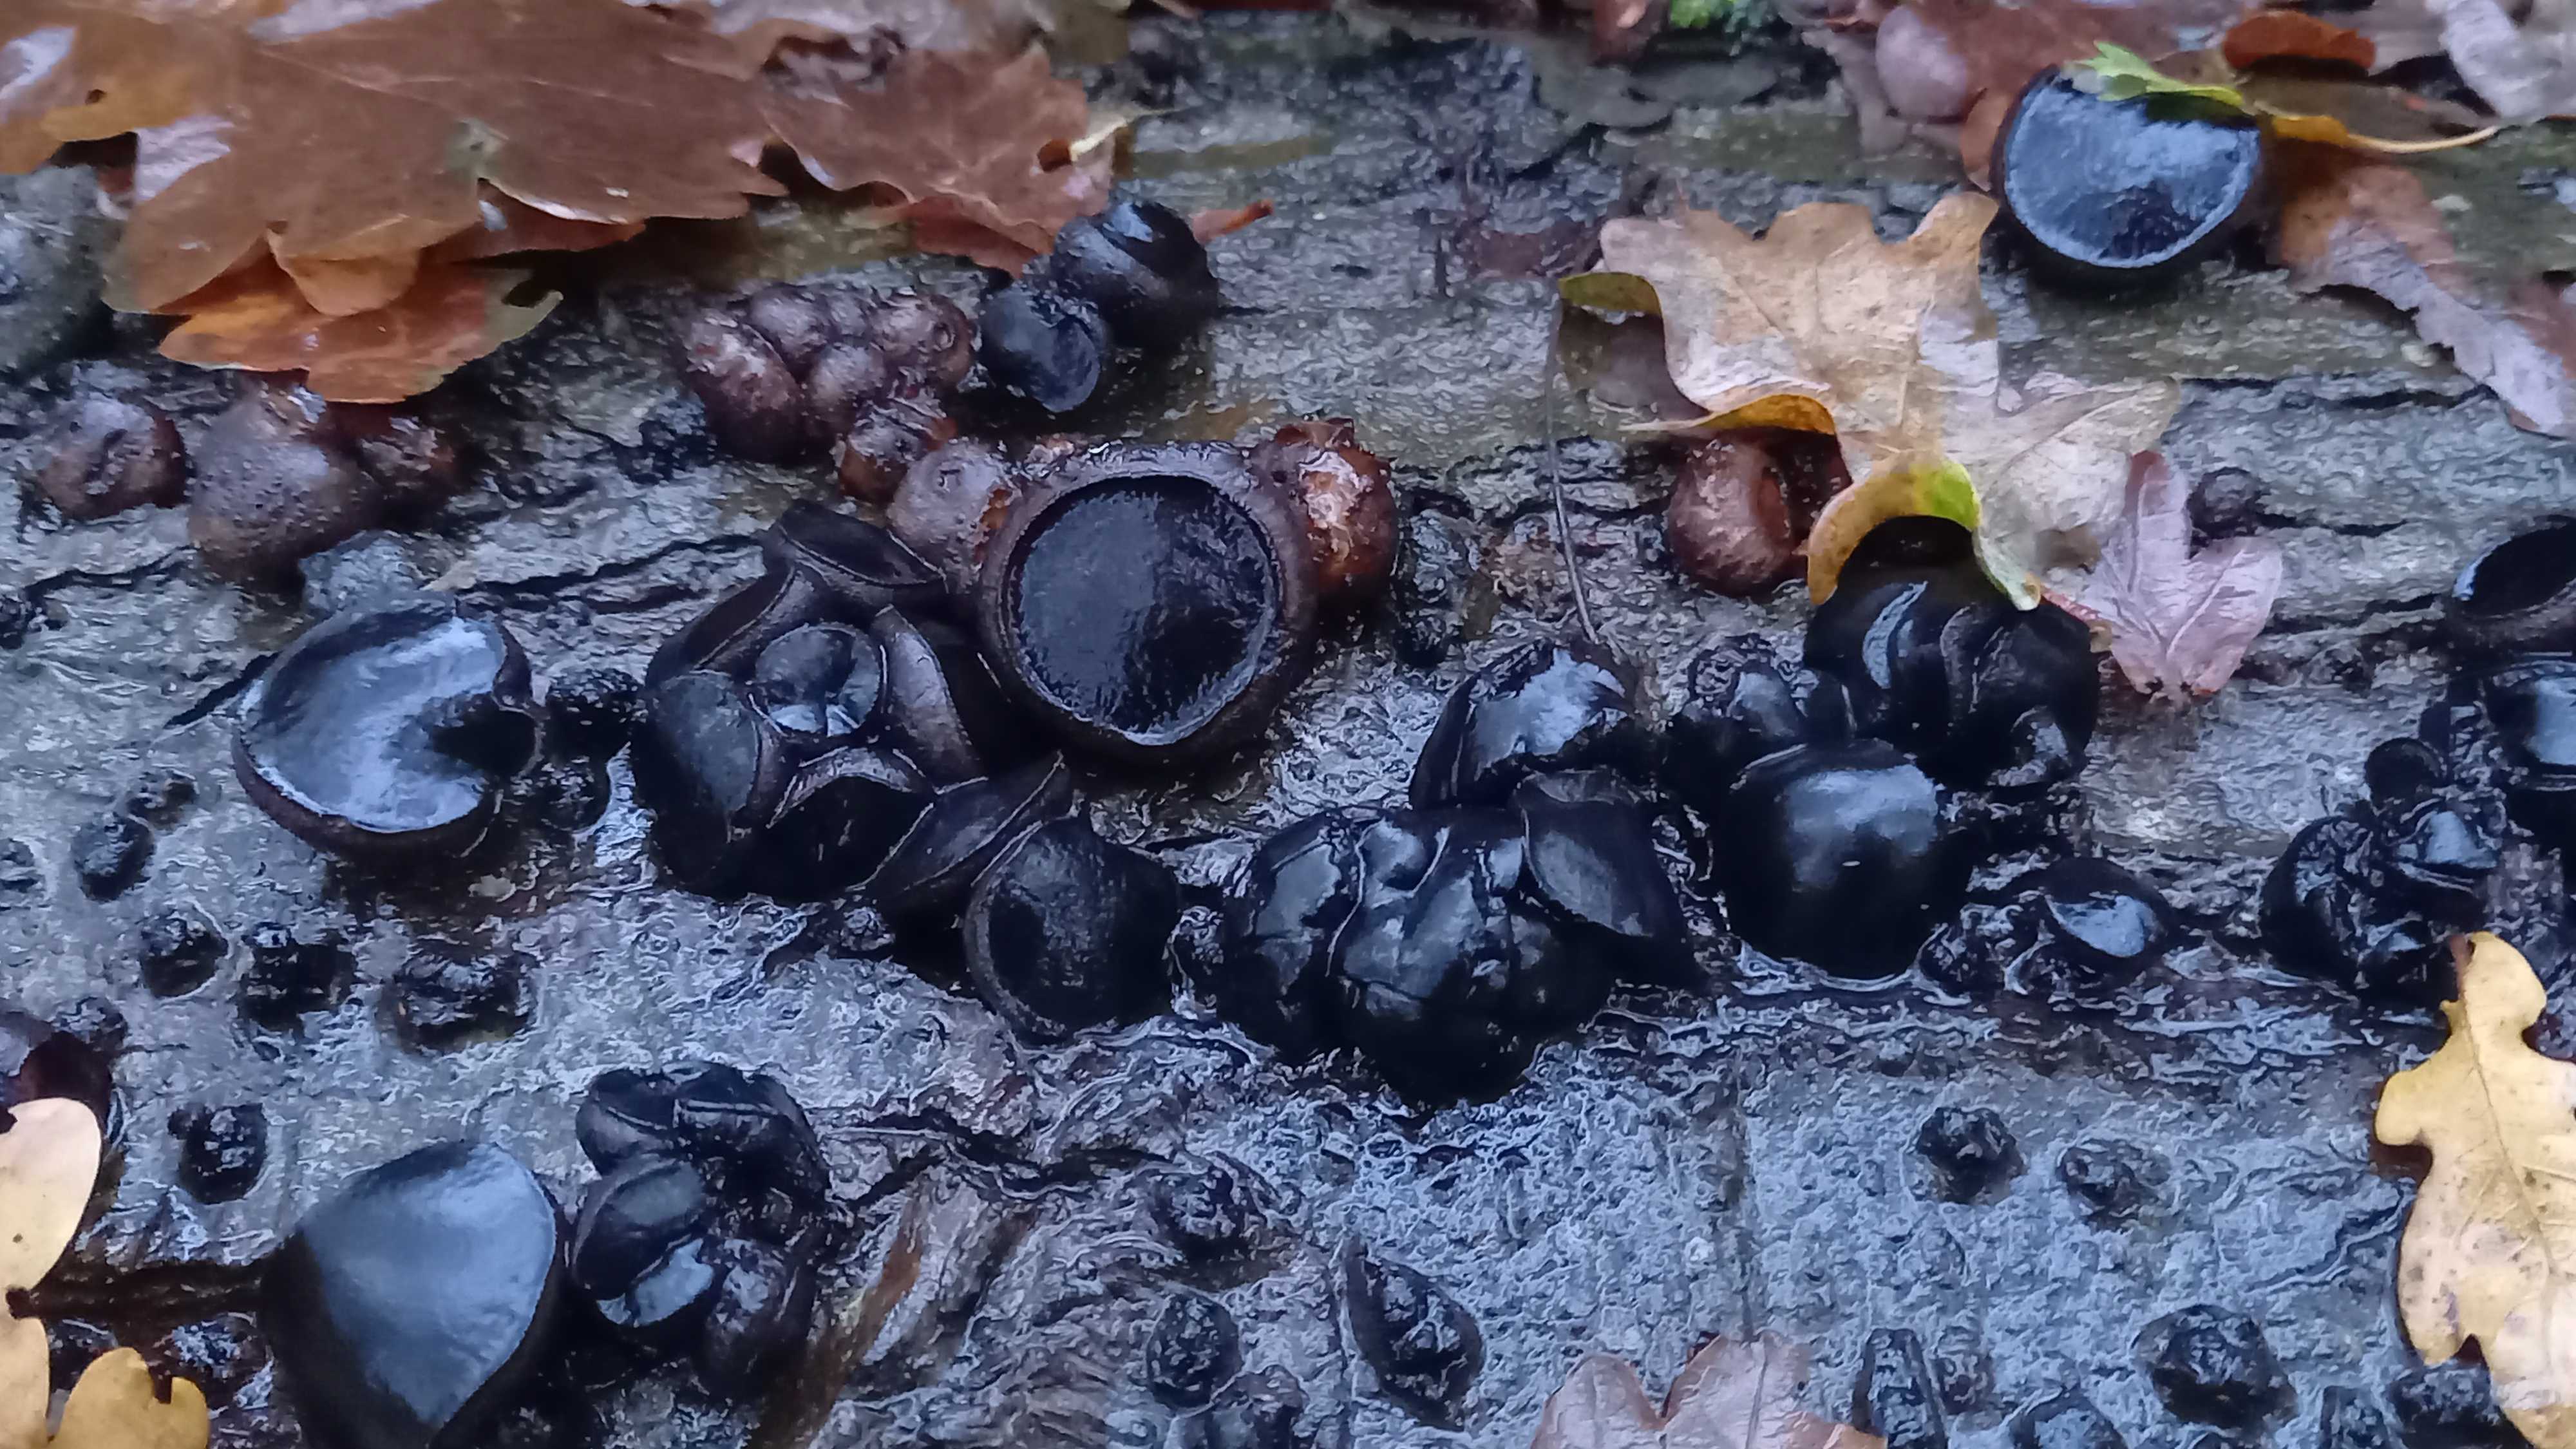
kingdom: Fungi
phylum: Ascomycota
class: Leotiomycetes
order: Phacidiales
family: Phacidiaceae
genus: Bulgaria
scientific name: Bulgaria inquinans
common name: afsmittende topsvamp
